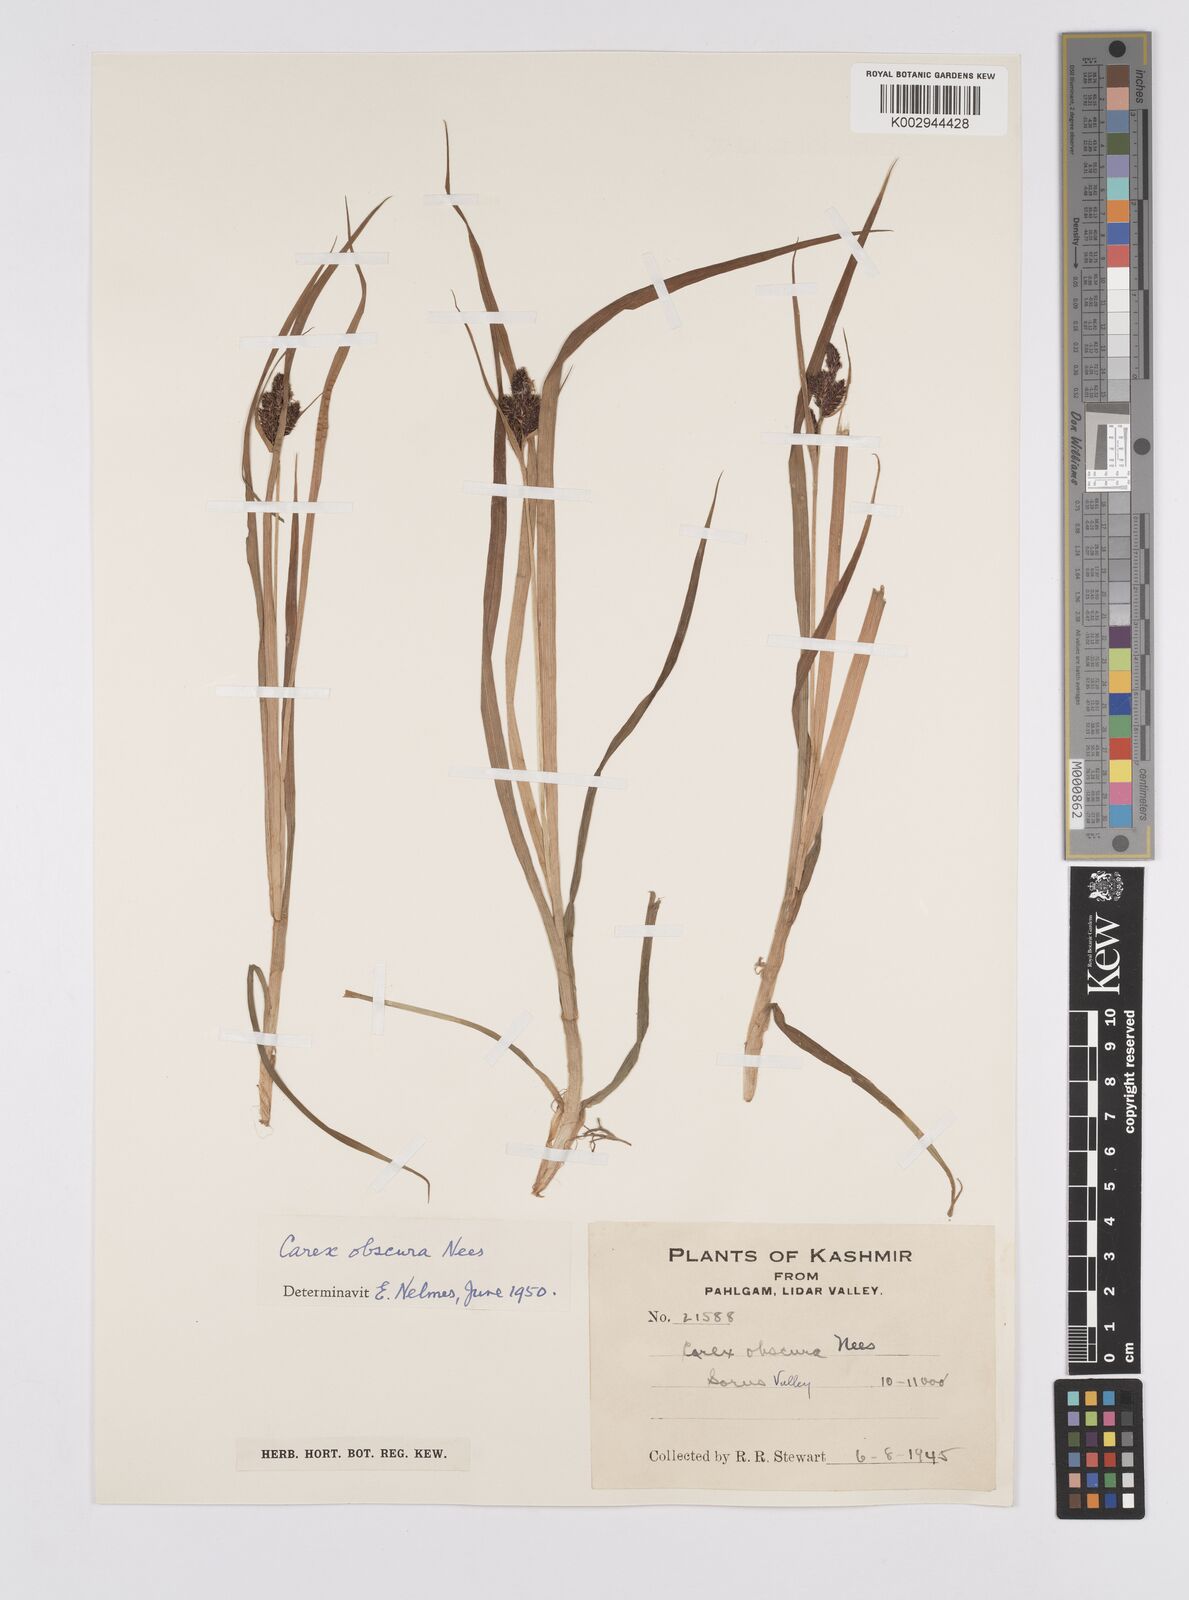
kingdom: Plantae
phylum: Tracheophyta
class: Liliopsida
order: Poales
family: Cyperaceae
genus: Carex
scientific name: Carex obscura
